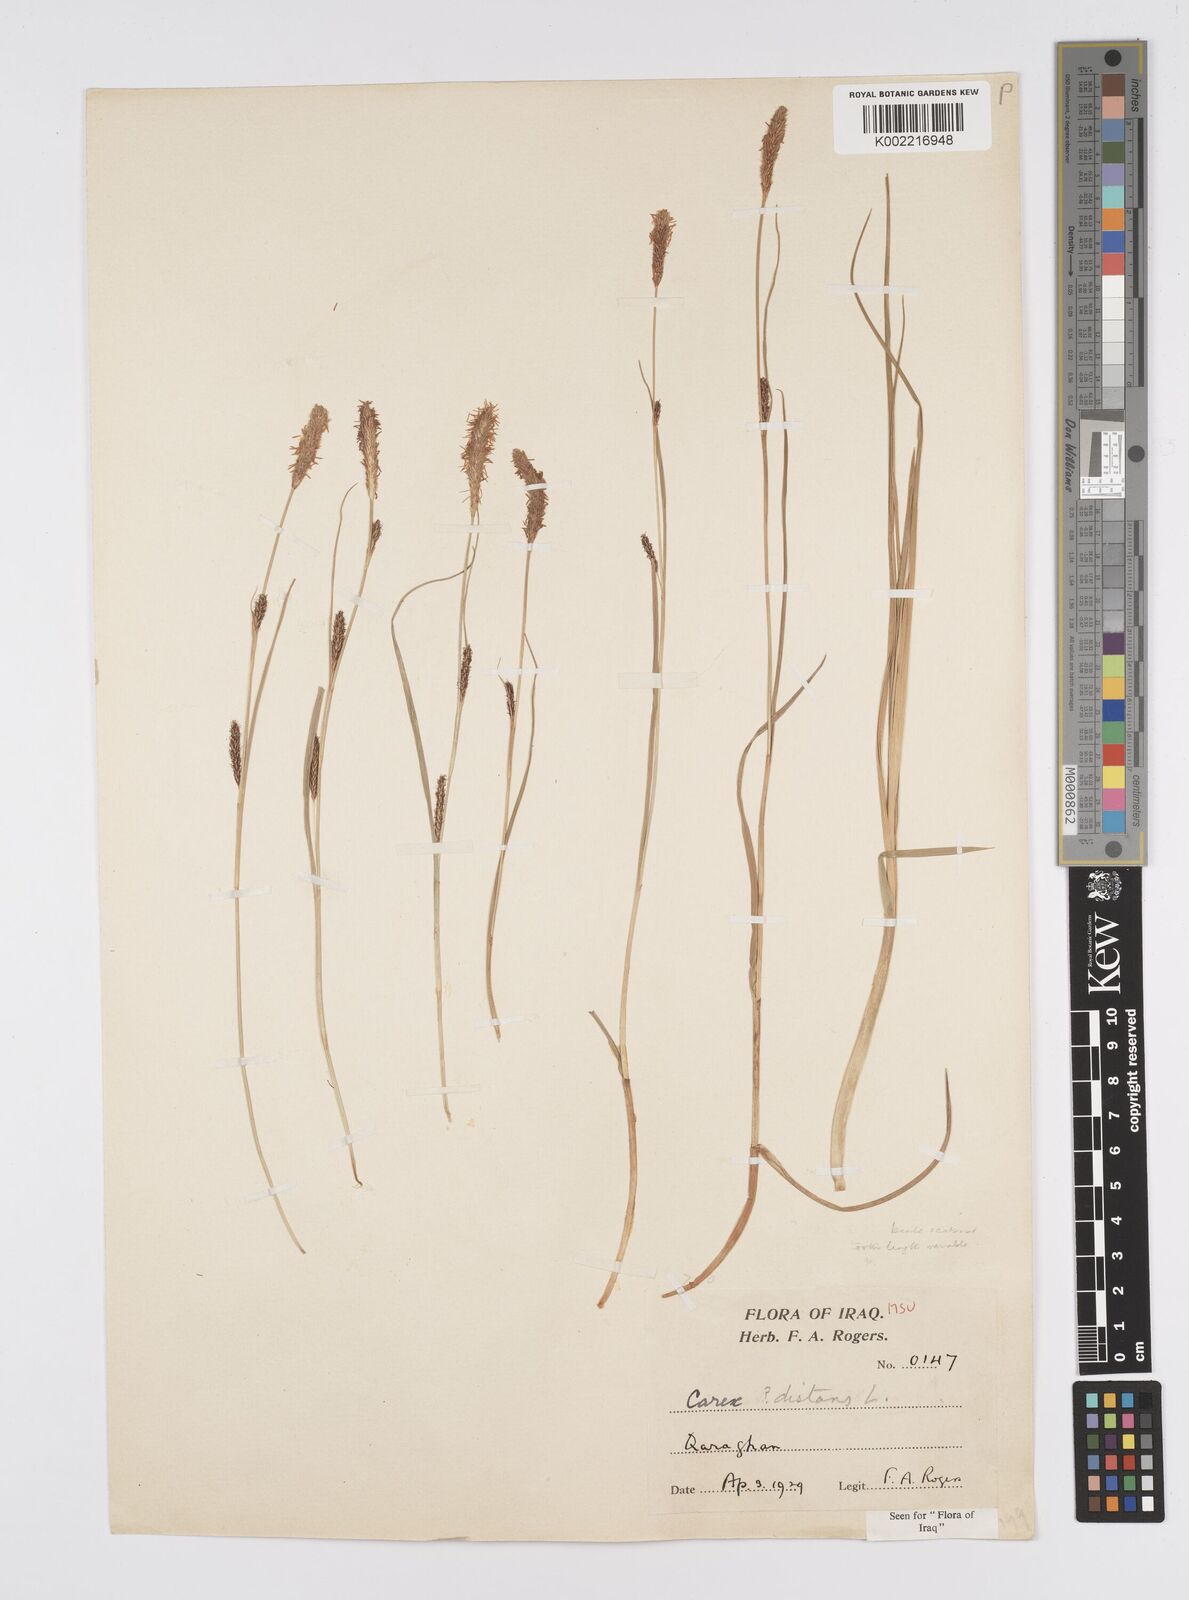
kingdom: Plantae
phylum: Tracheophyta
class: Liliopsida
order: Poales
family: Cyperaceae
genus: Carex
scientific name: Carex distans
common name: Distant sedge
